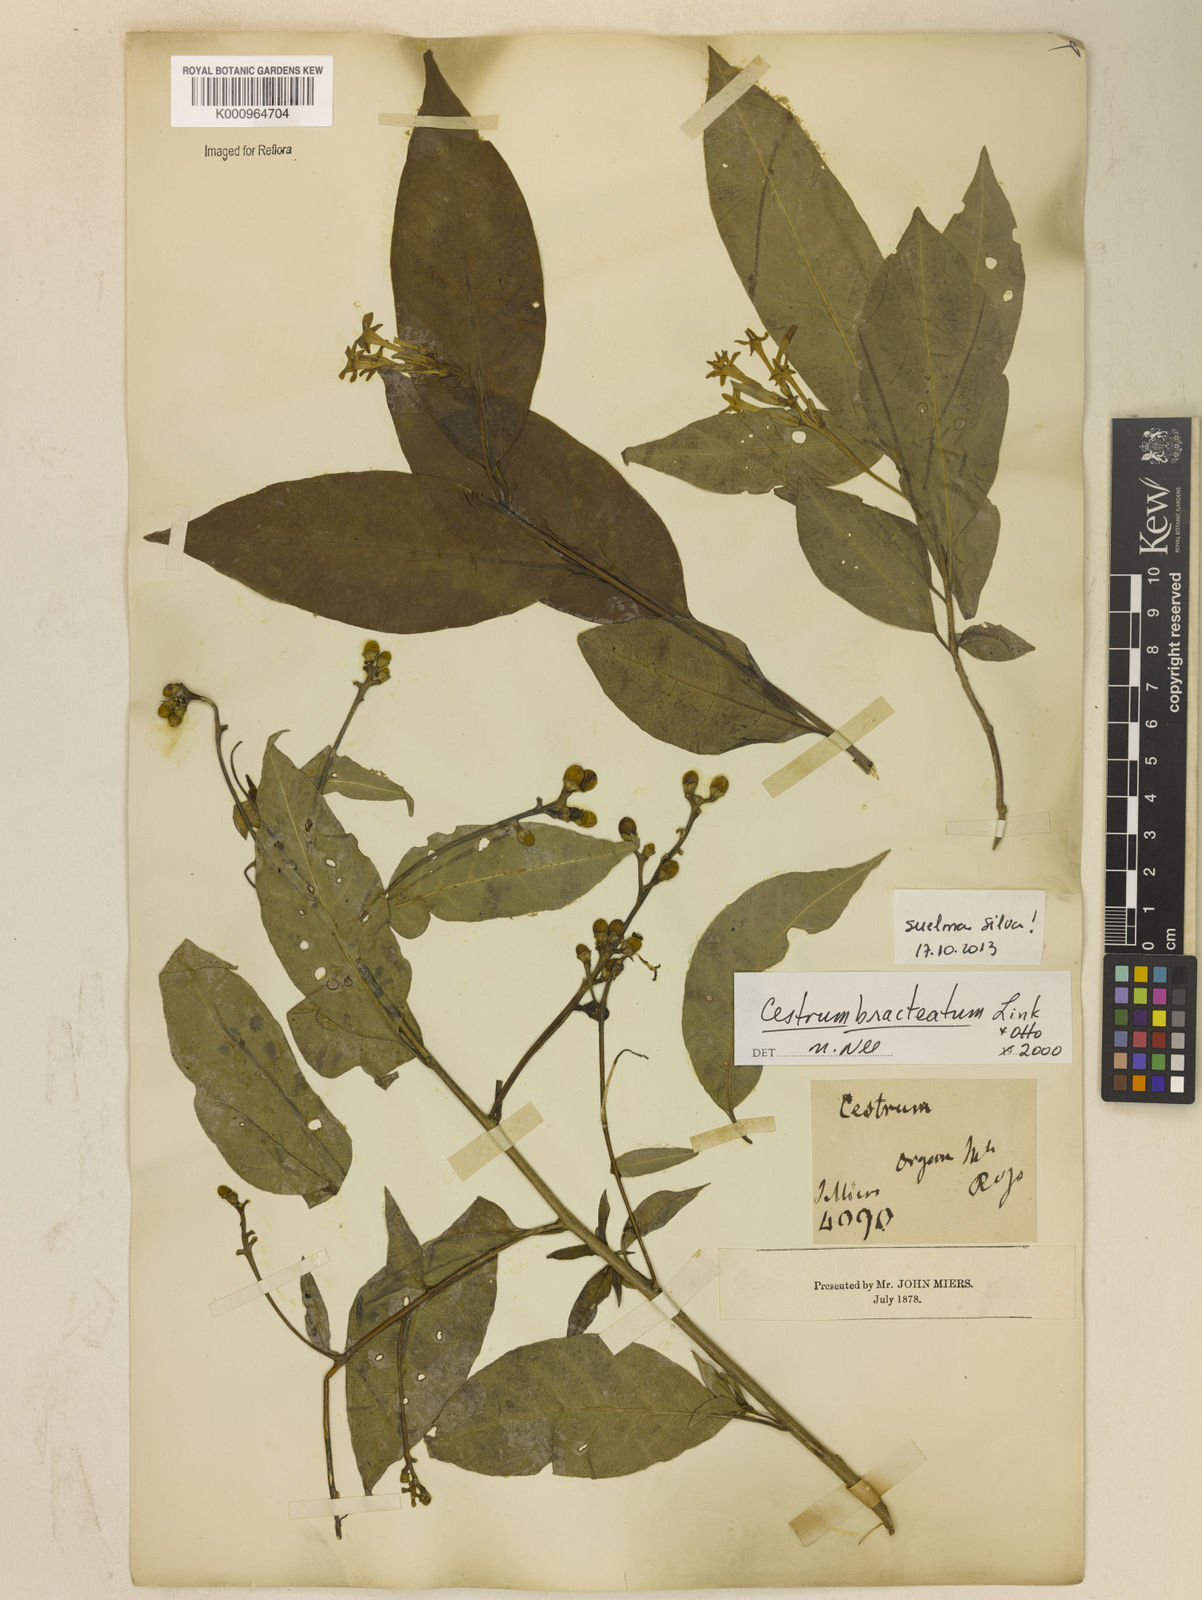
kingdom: Plantae
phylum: Tracheophyta
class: Magnoliopsida
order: Solanales
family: Solanaceae
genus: Cestrum
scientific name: Cestrum bracteatum
